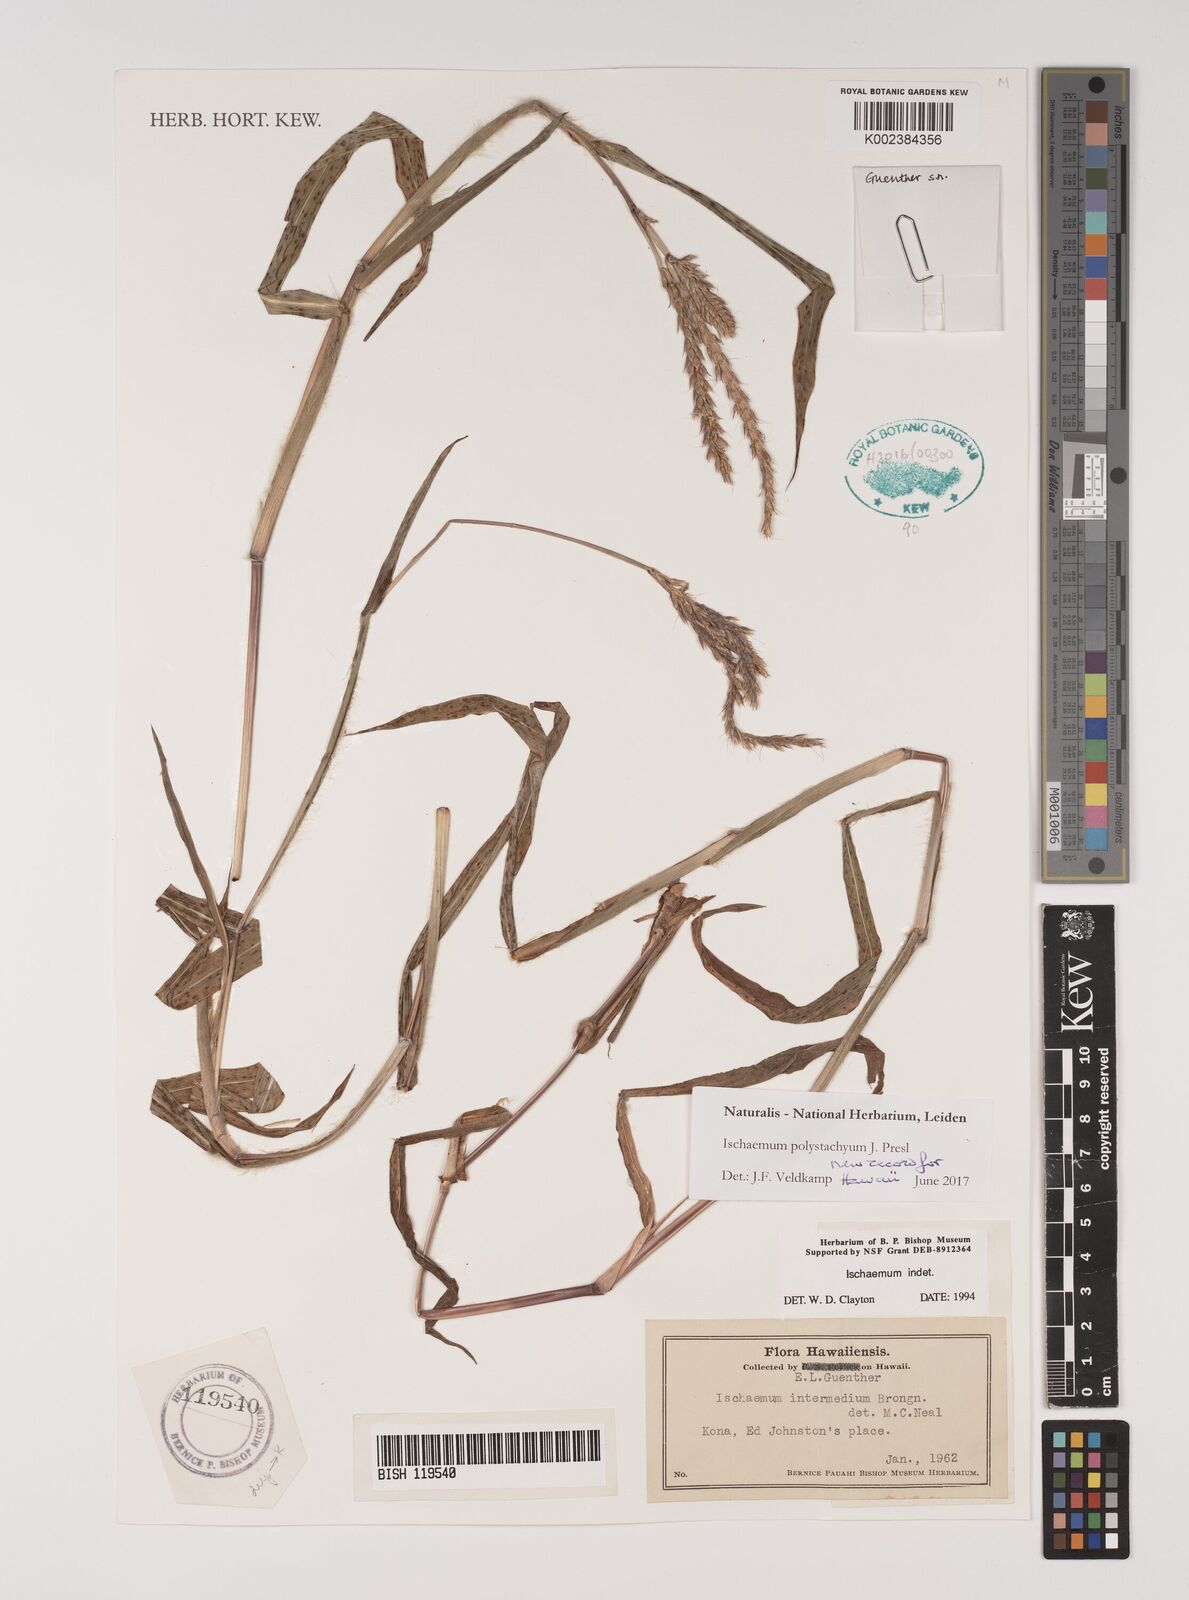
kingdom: Plantae
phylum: Tracheophyta
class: Liliopsida
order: Poales
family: Poaceae
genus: Ischaemum
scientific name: Ischaemum polystachyum
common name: Paddle grass
